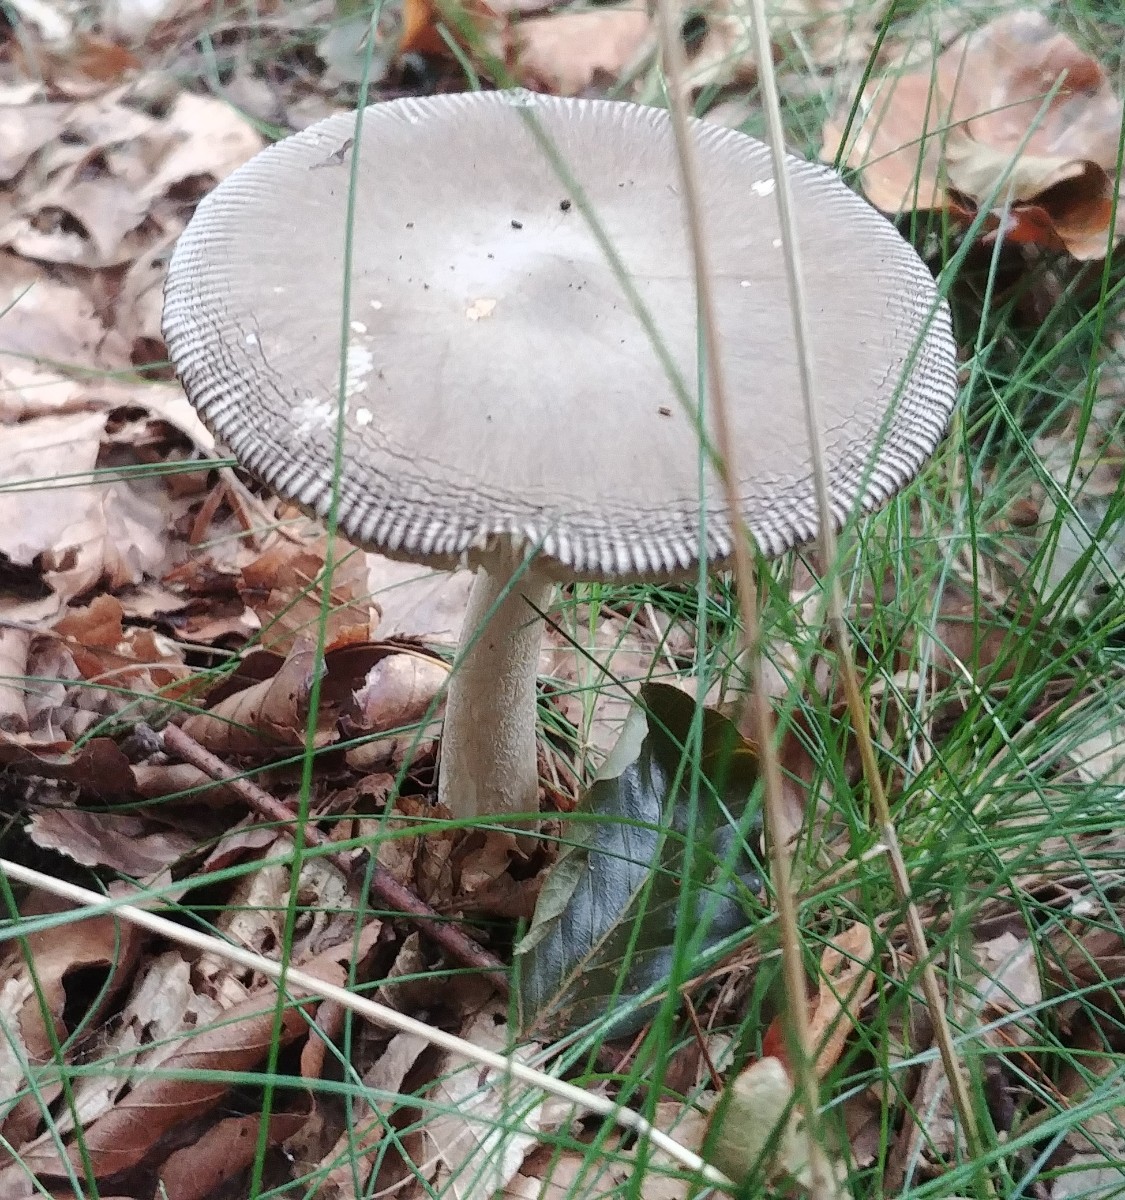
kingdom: Fungi
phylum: Basidiomycota
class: Agaricomycetes
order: Agaricales
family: Amanitaceae
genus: Amanita
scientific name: Amanita vaginata
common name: grå kam-fluesvamp
